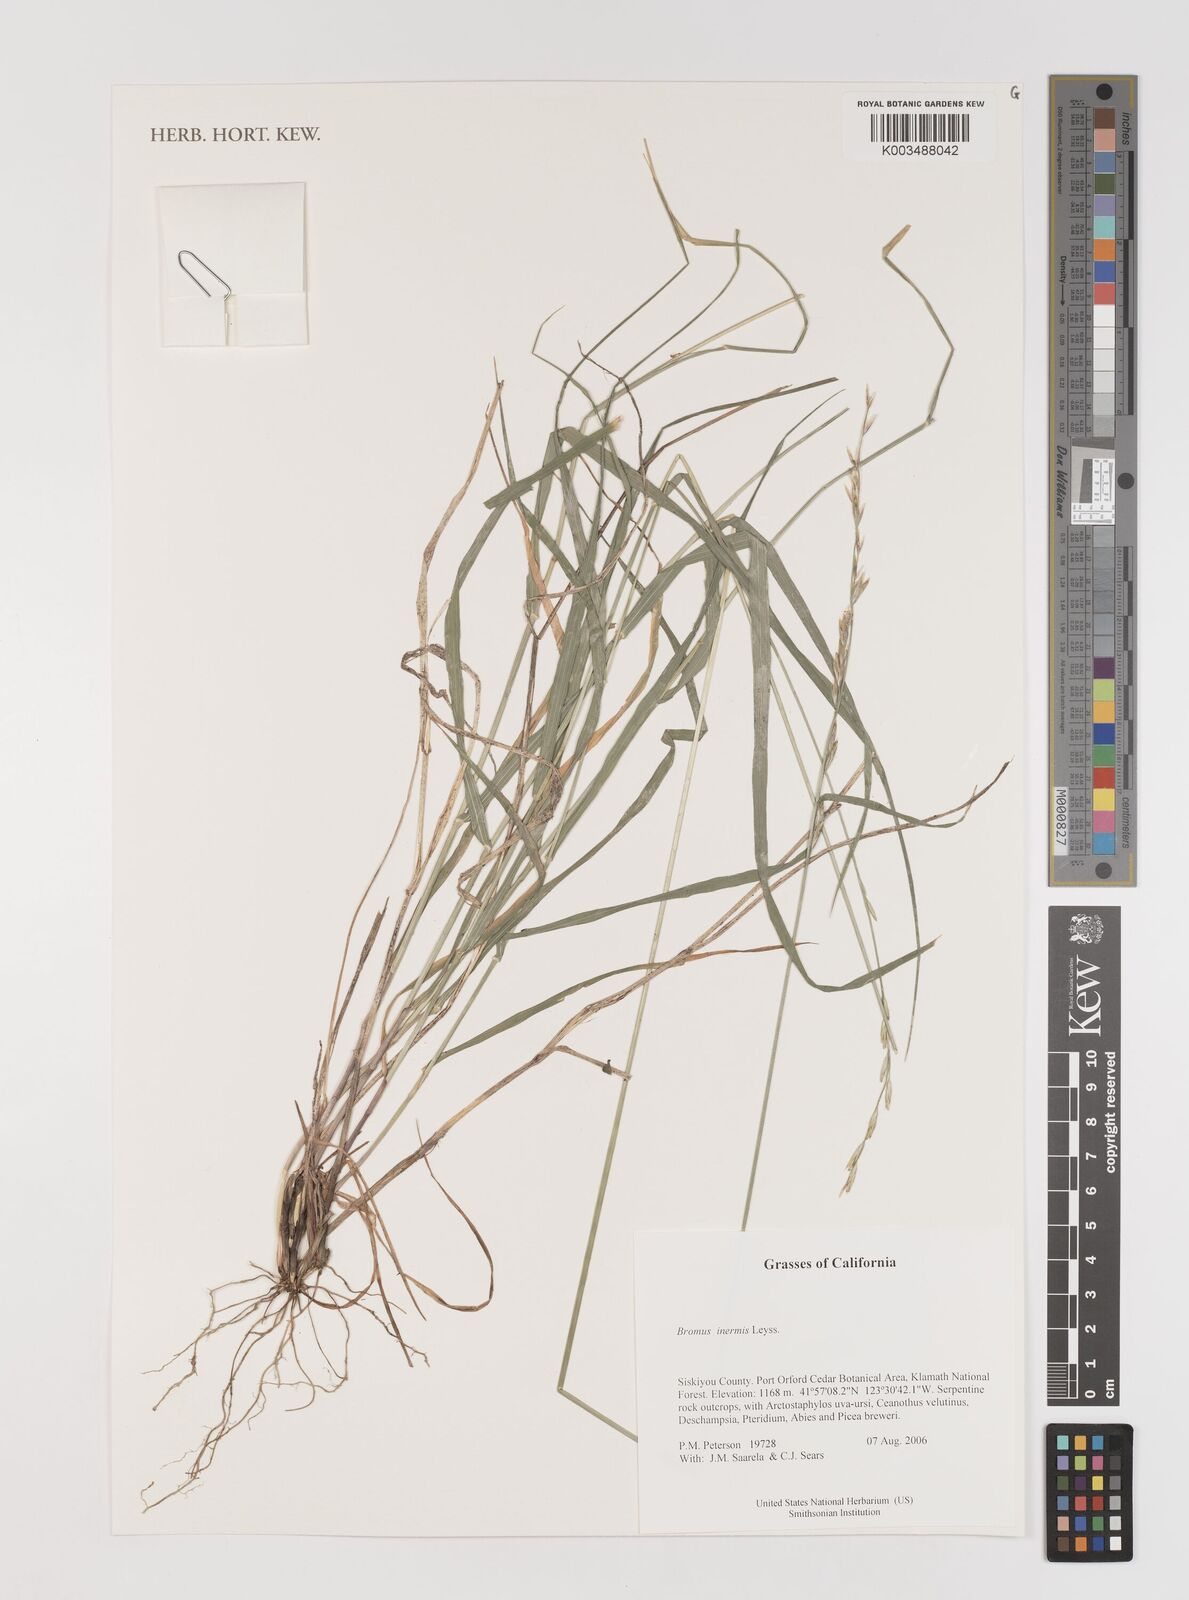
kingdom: Plantae
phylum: Tracheophyta
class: Liliopsida
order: Poales
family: Poaceae
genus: Bromus
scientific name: Bromus inermis
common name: Smooth brome
